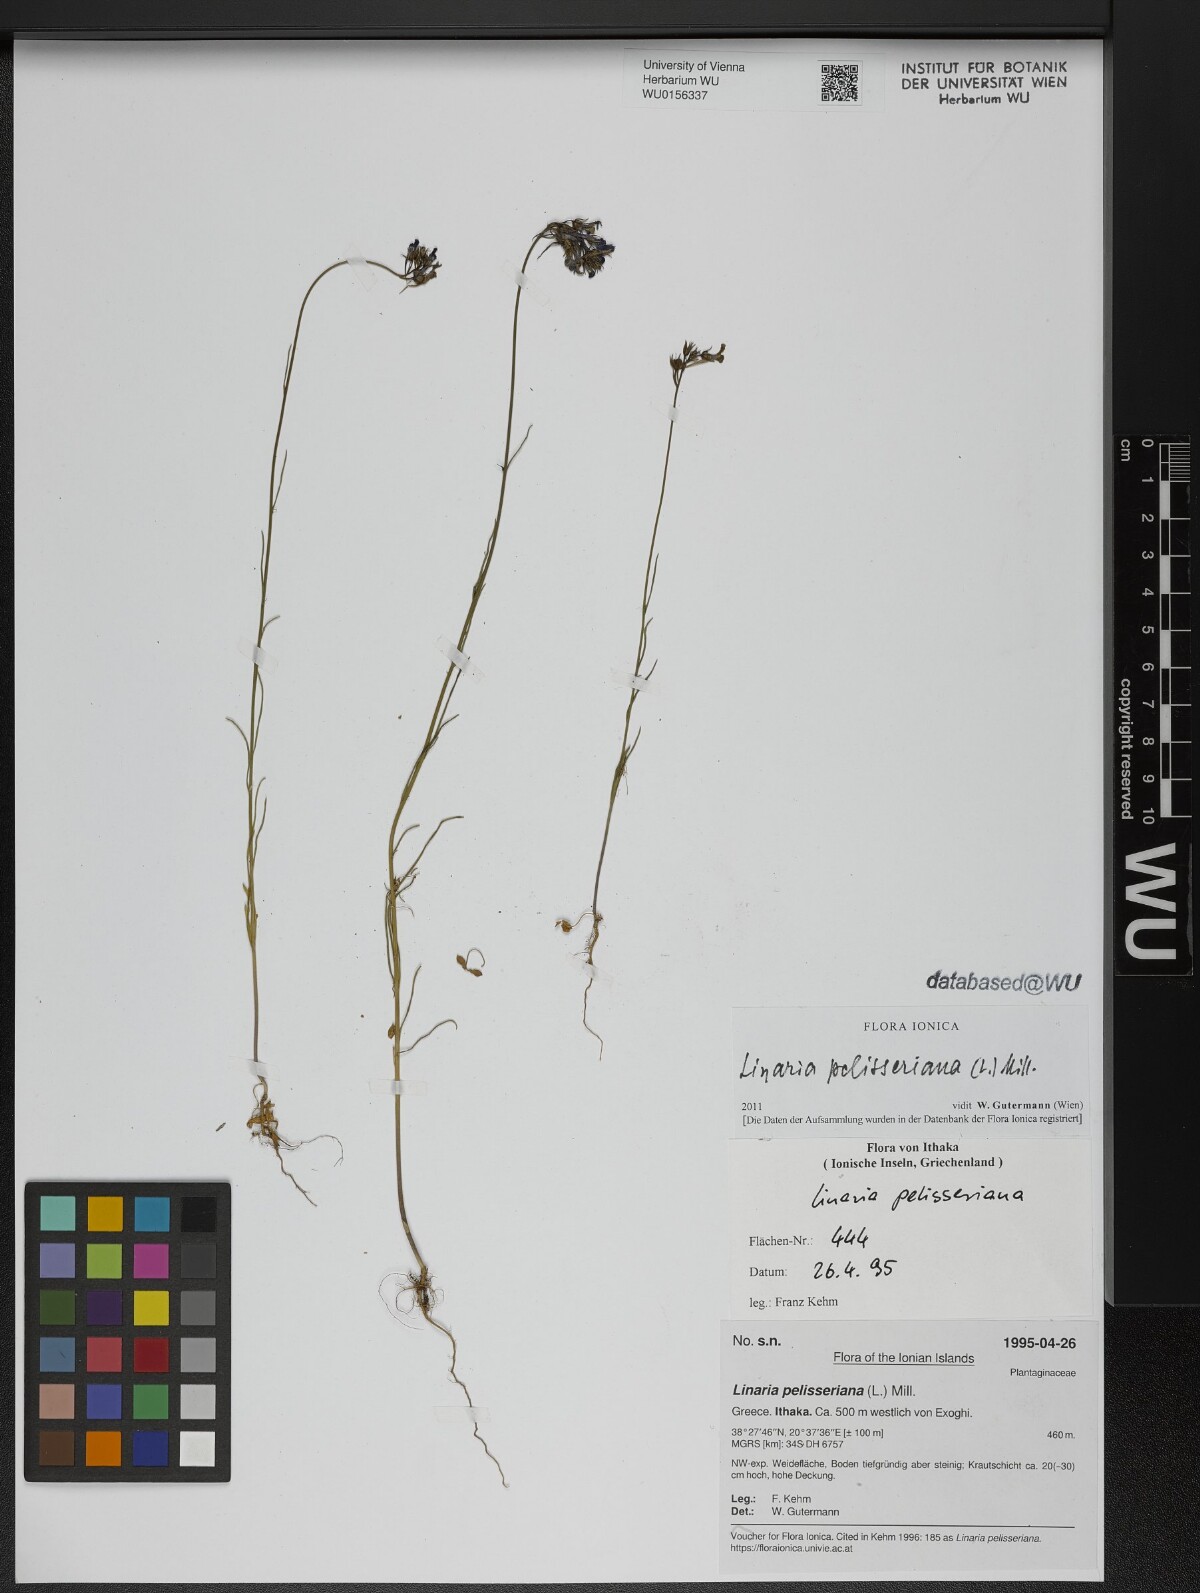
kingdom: Plantae
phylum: Tracheophyta
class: Magnoliopsida
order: Lamiales
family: Plantaginaceae
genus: Linaria
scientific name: Linaria pelisseriana
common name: Jersey toadflax
